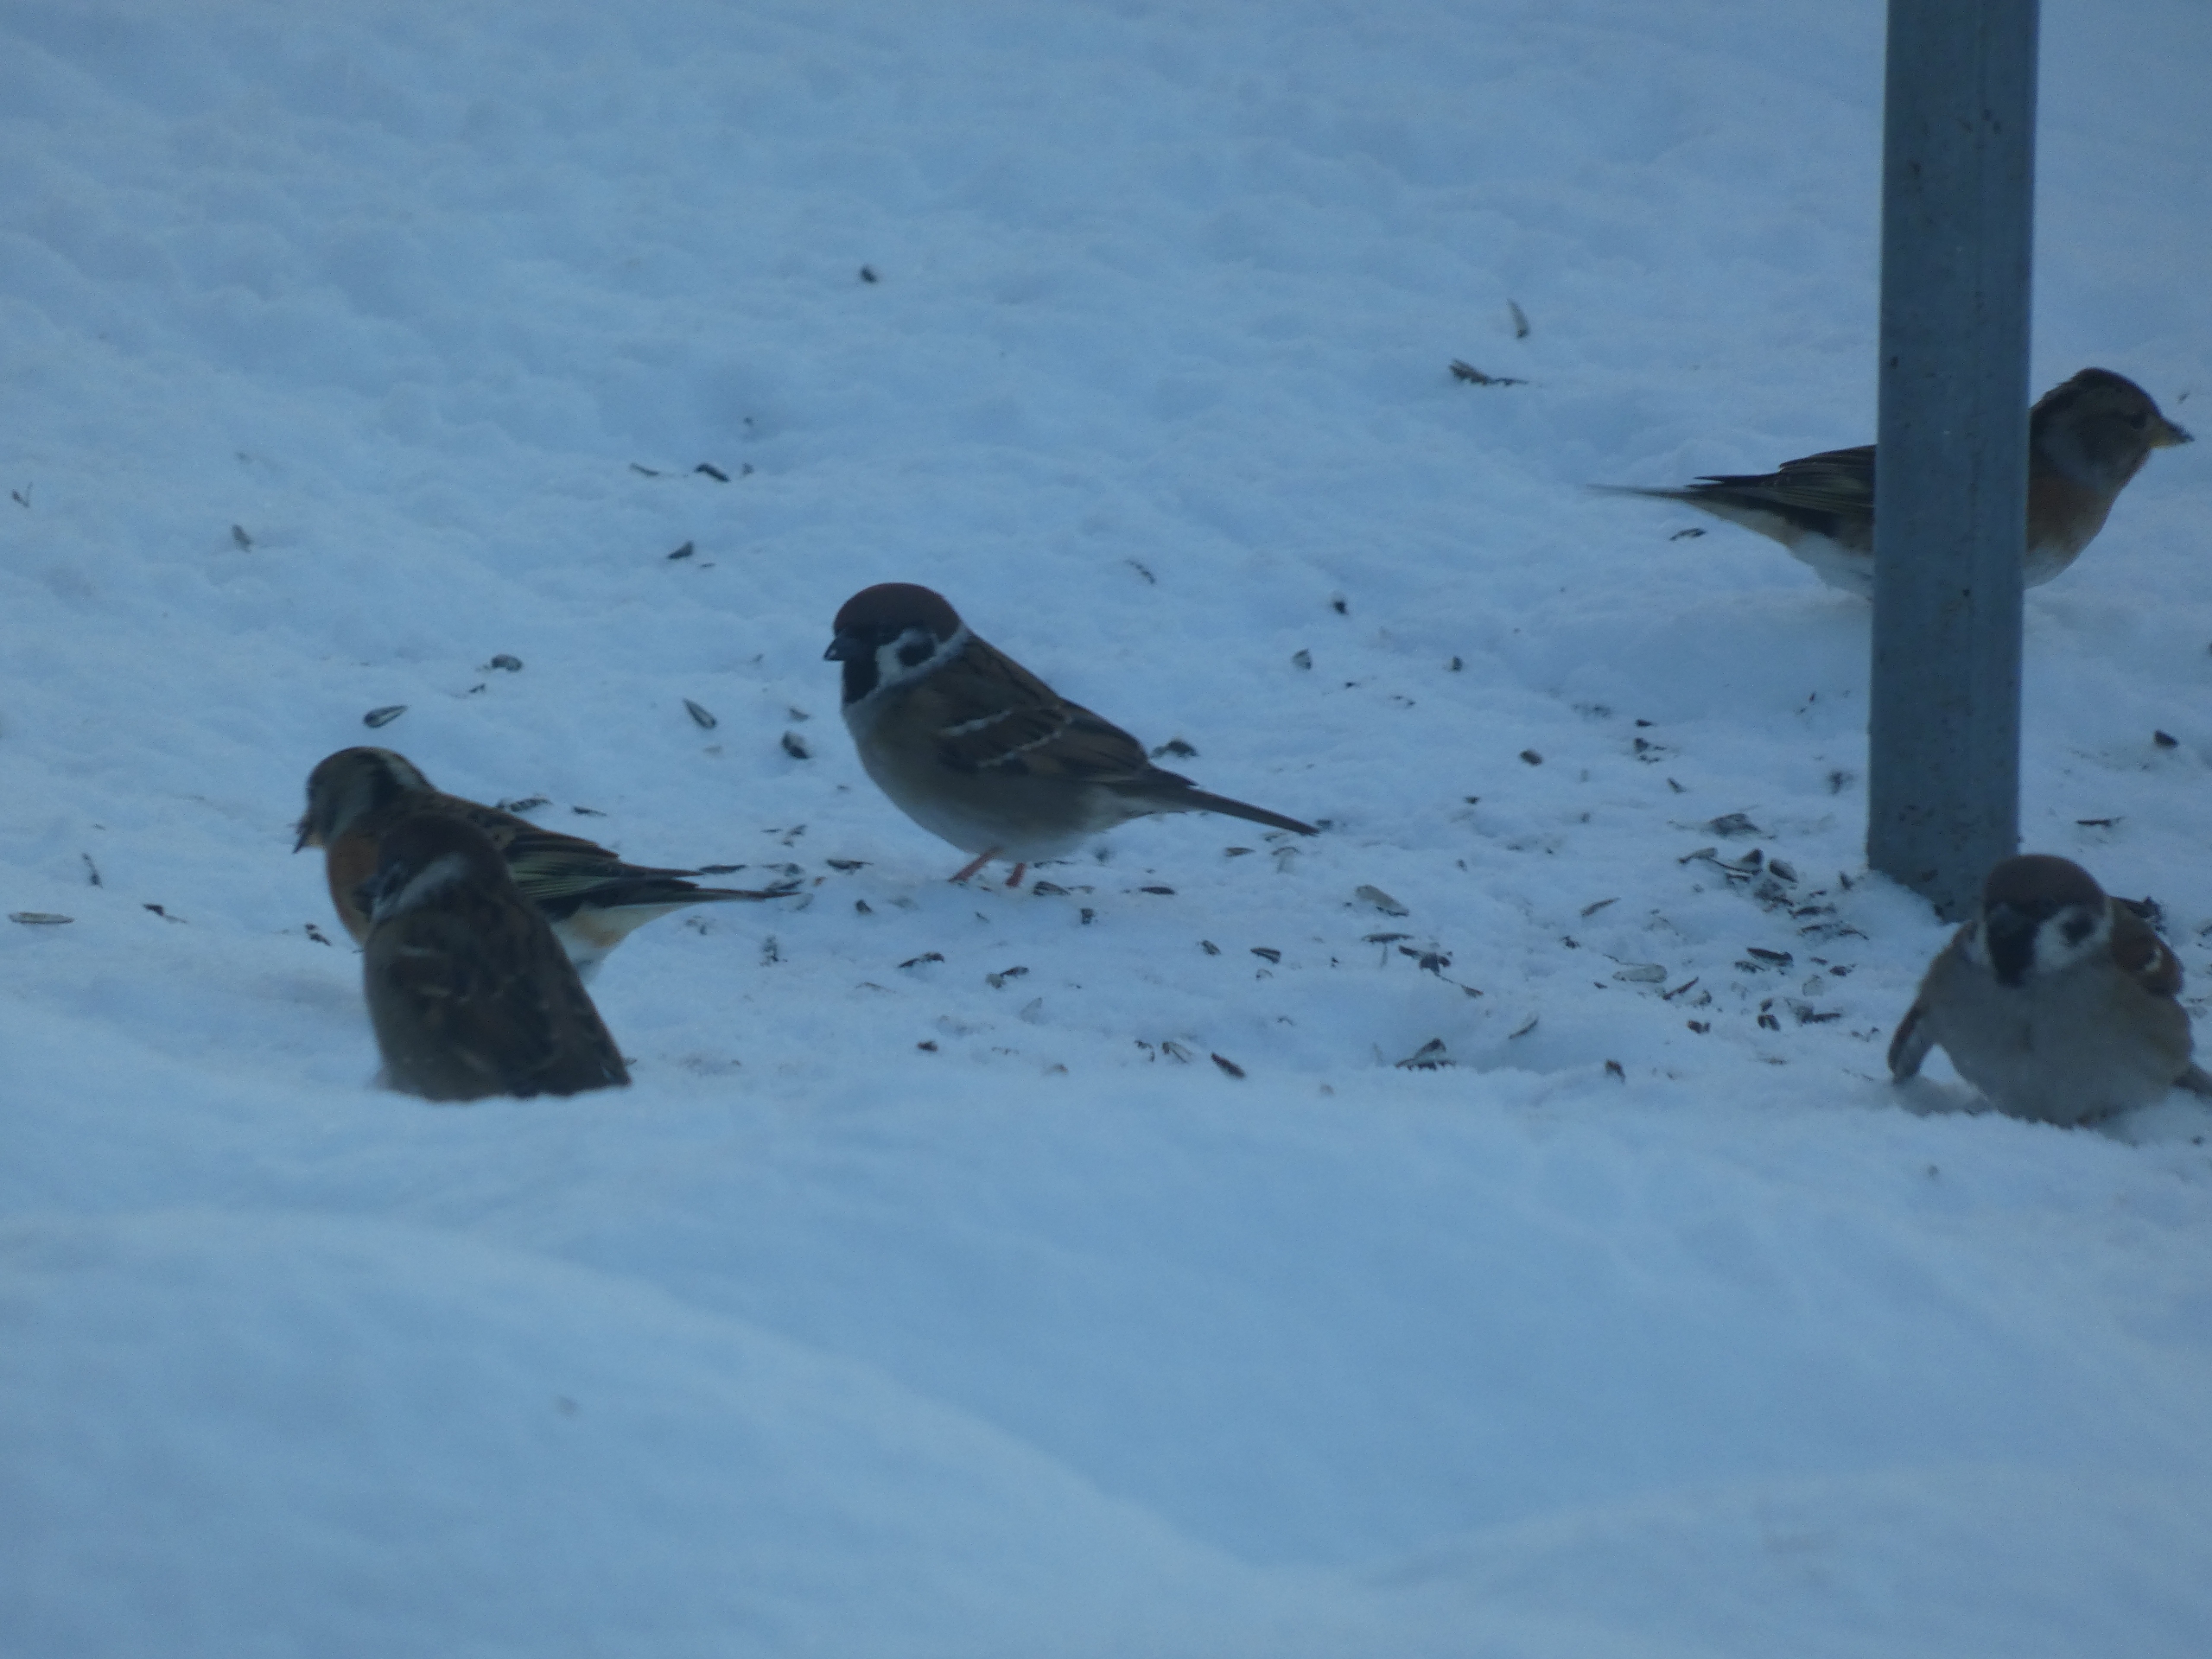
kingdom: Animalia
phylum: Chordata
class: Aves
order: Passeriformes
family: Passeridae
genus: Passer
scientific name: Passer montanus
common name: Skovspurv
